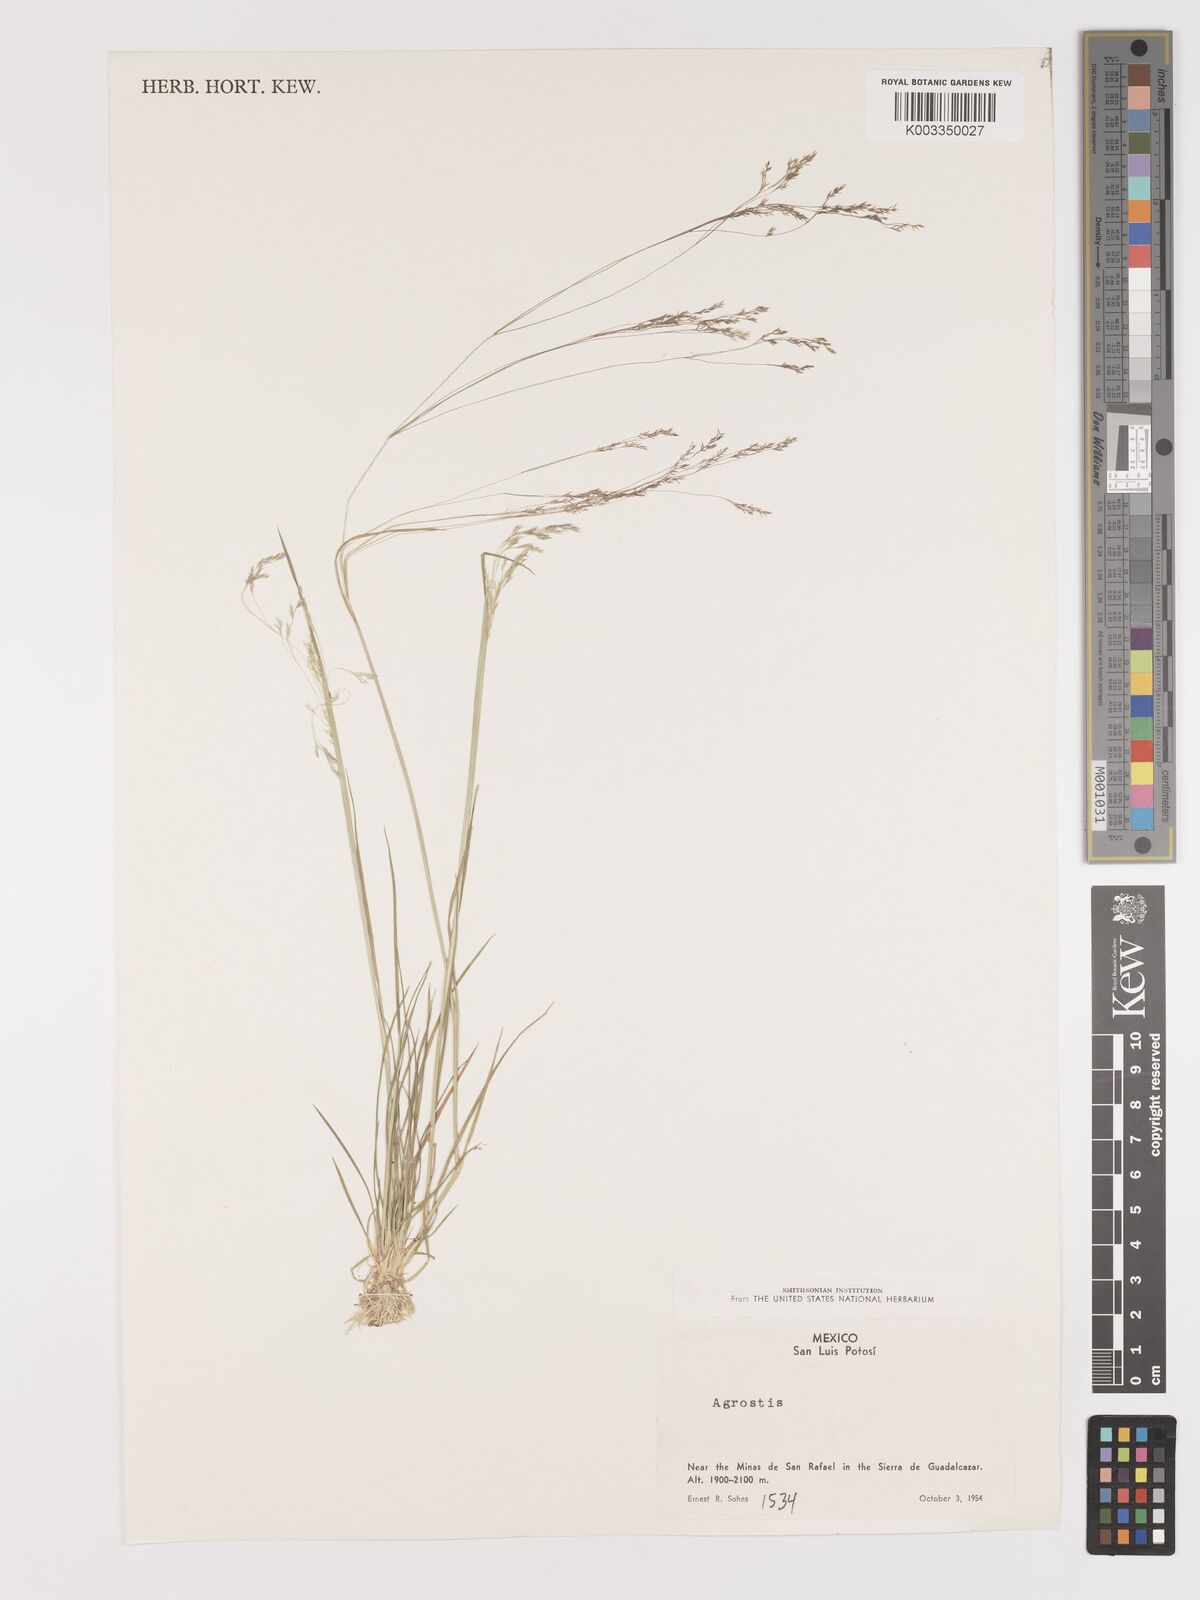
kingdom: Plantae
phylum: Tracheophyta
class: Liliopsida
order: Poales
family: Poaceae
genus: Agrostis
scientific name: Agrostis
